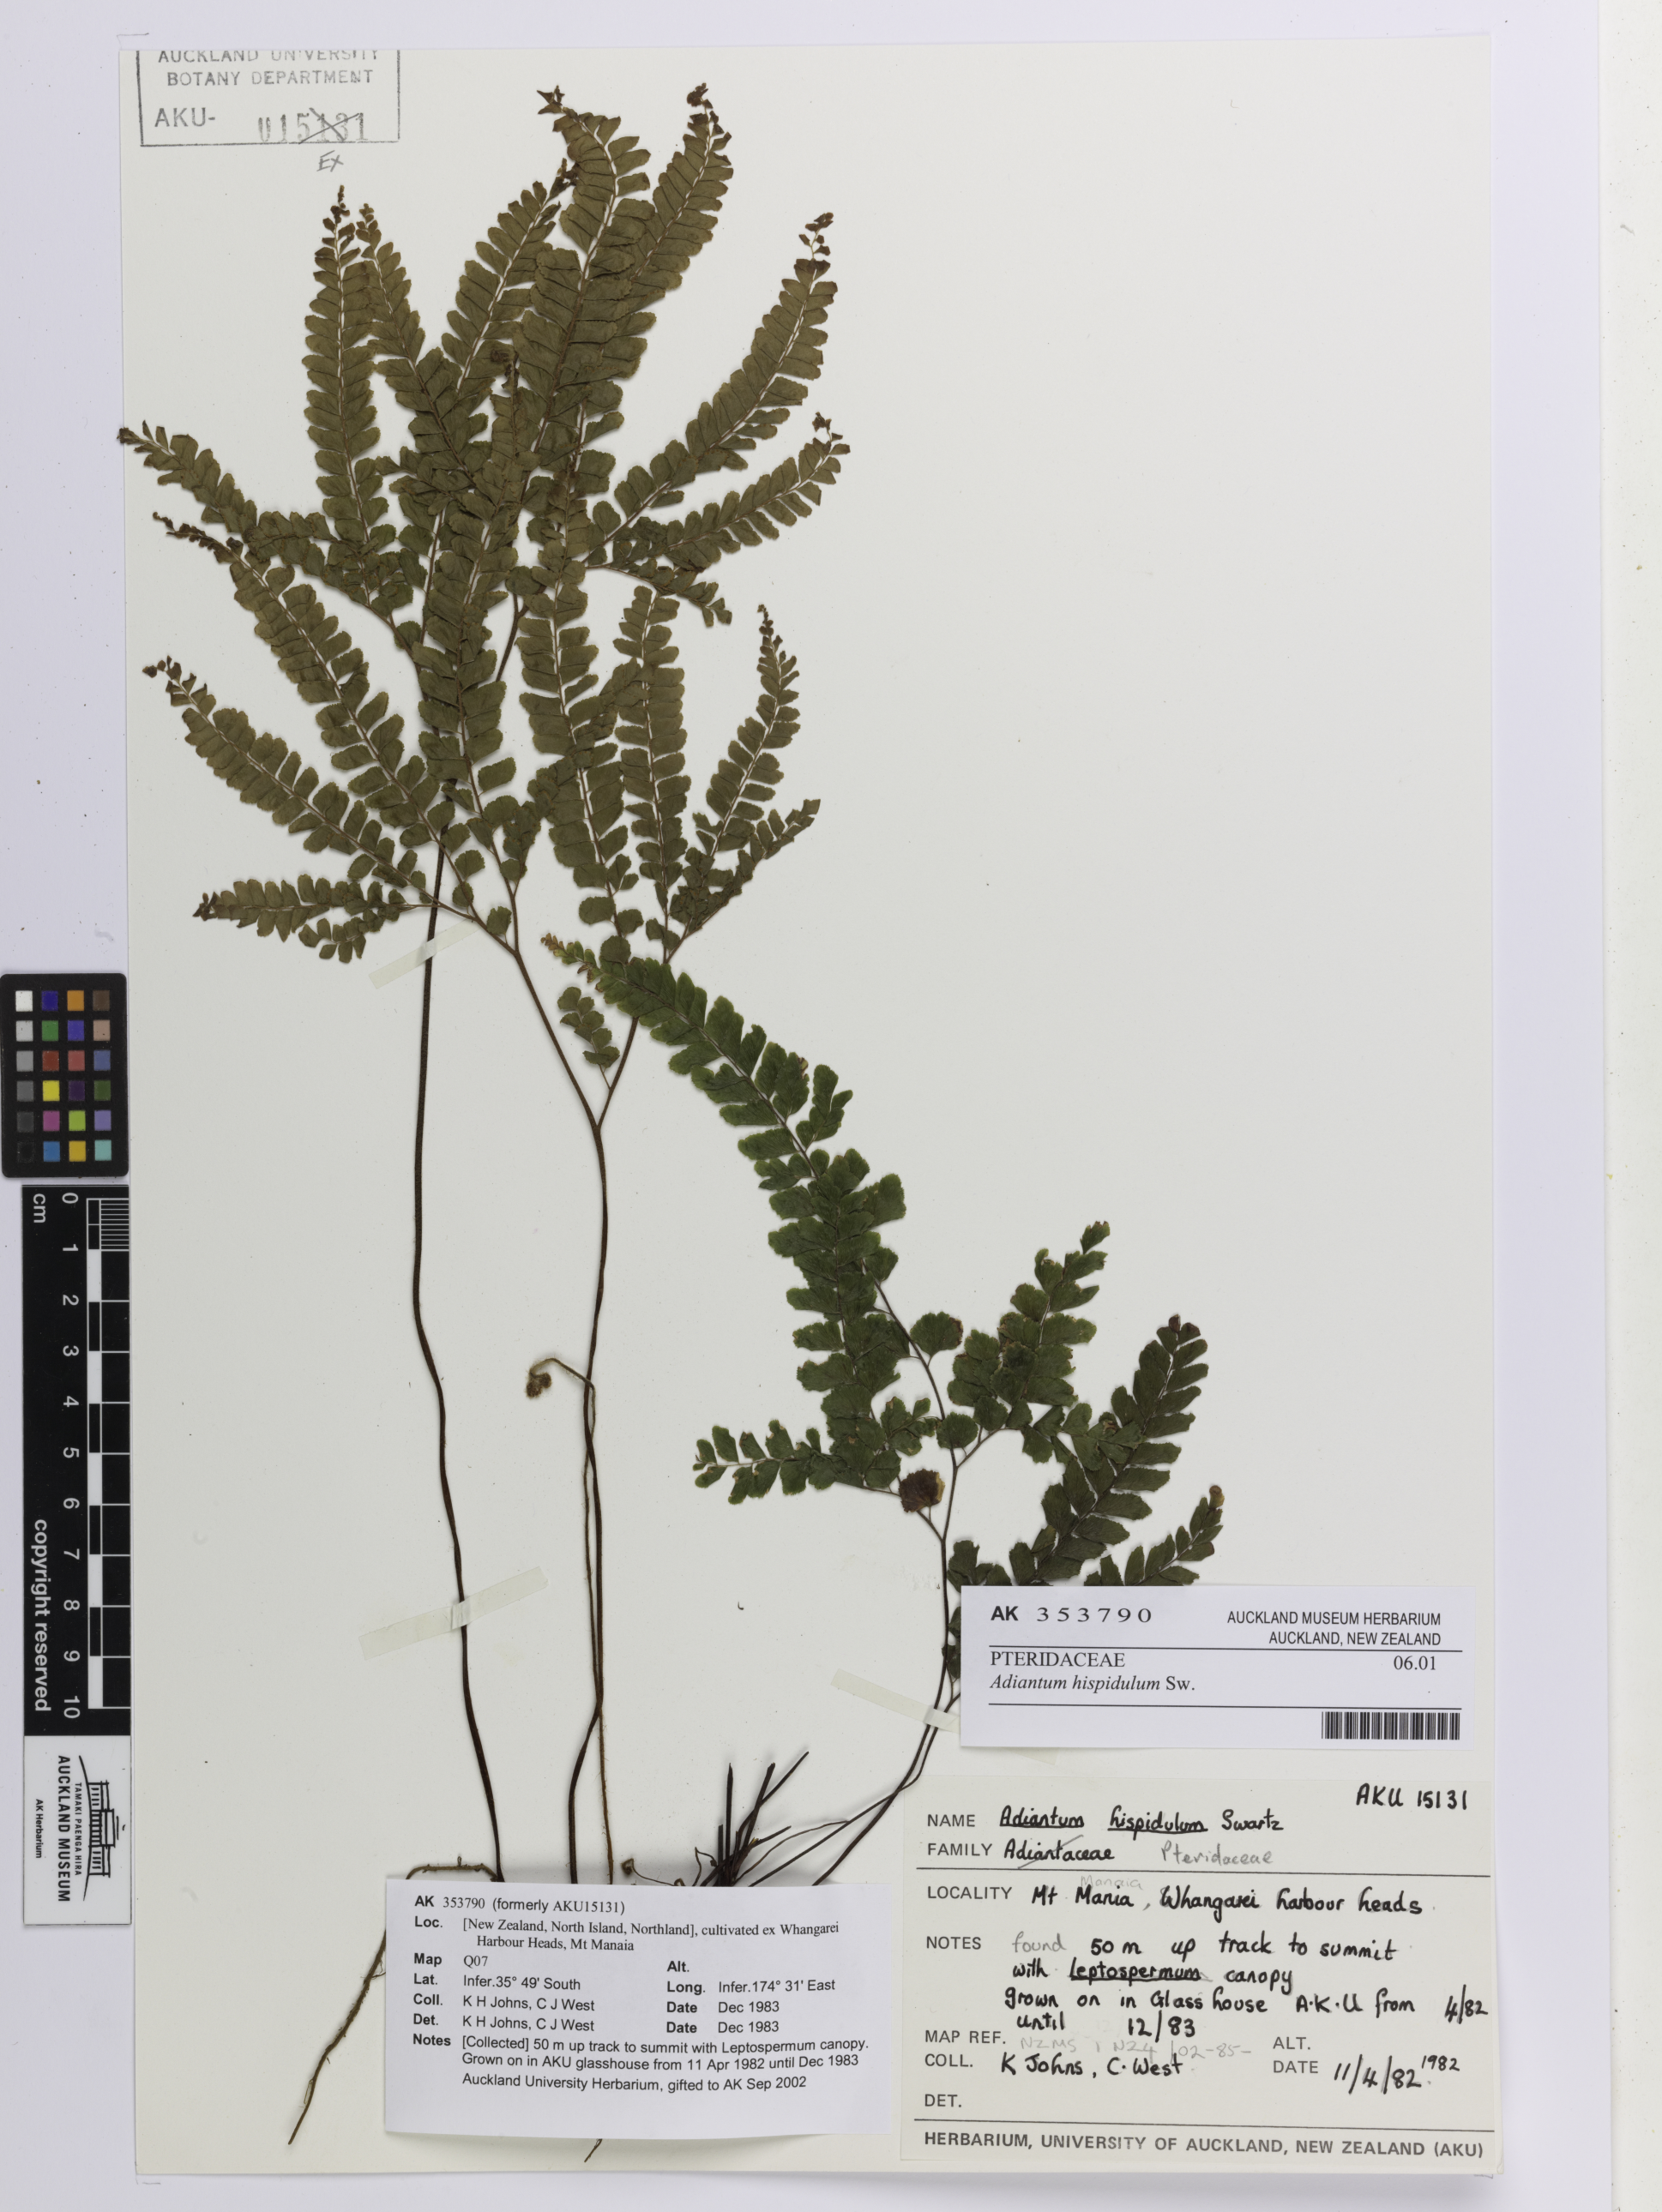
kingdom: Plantae
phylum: Tracheophyta
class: Polypodiopsida
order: Polypodiales
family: Pteridaceae
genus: Adiantum
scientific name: Adiantum hispidulum
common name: Rough maidenhair
